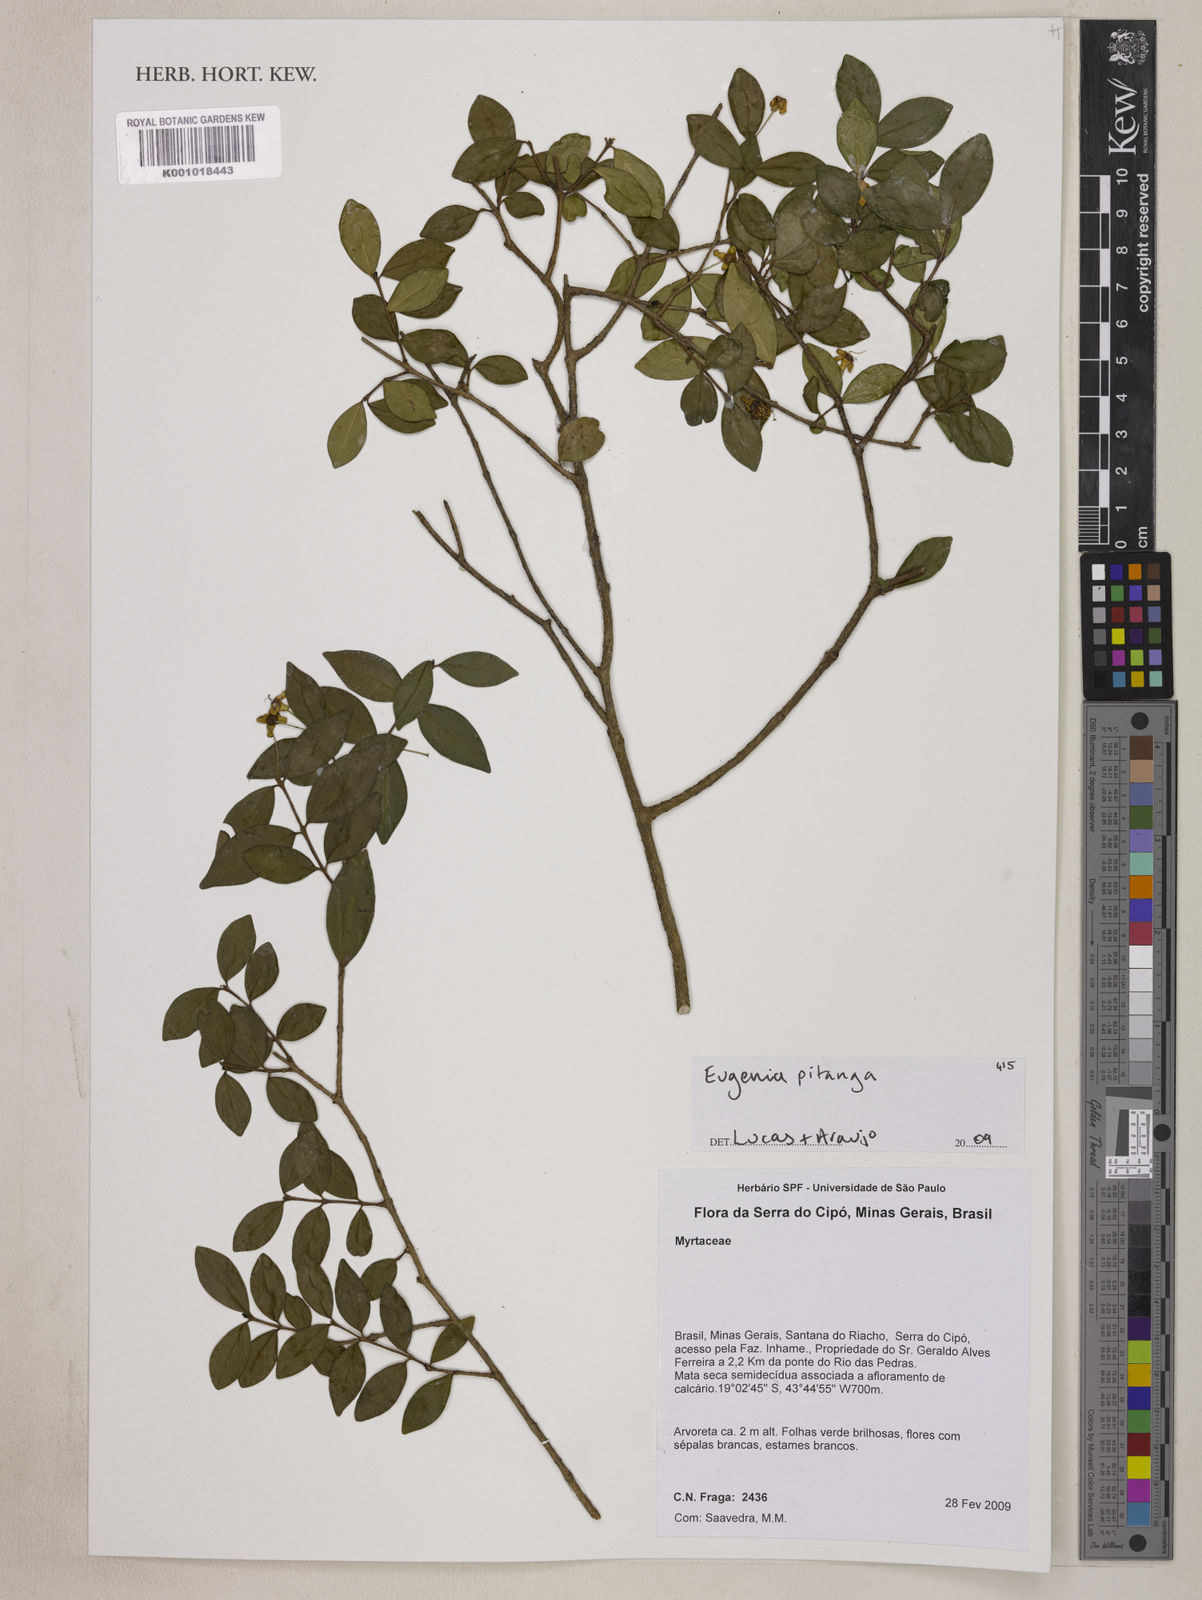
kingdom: Plantae
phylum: Tracheophyta
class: Magnoliopsida
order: Myrtales
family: Myrtaceae
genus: Eugenia
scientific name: Eugenia
